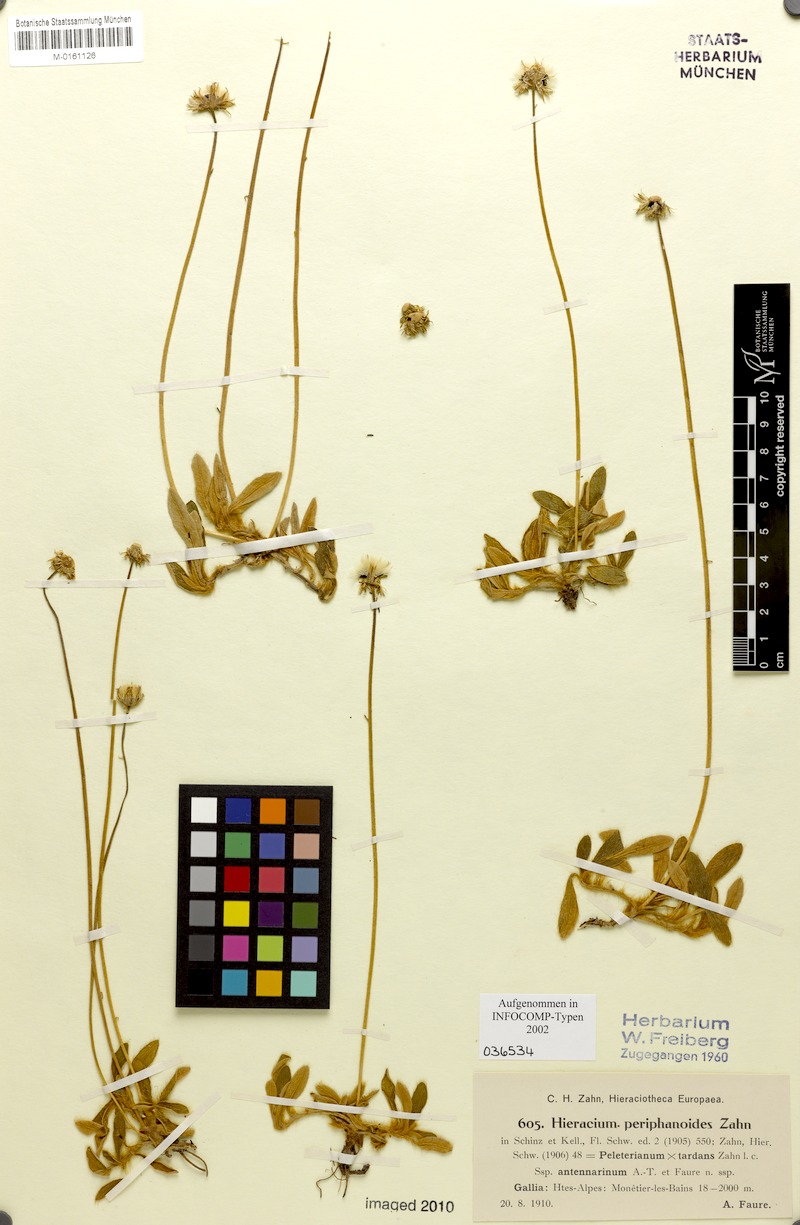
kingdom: Plantae
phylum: Tracheophyta
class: Magnoliopsida
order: Asterales
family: Asteraceae
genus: Pilosella
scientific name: Pilosella capillata
